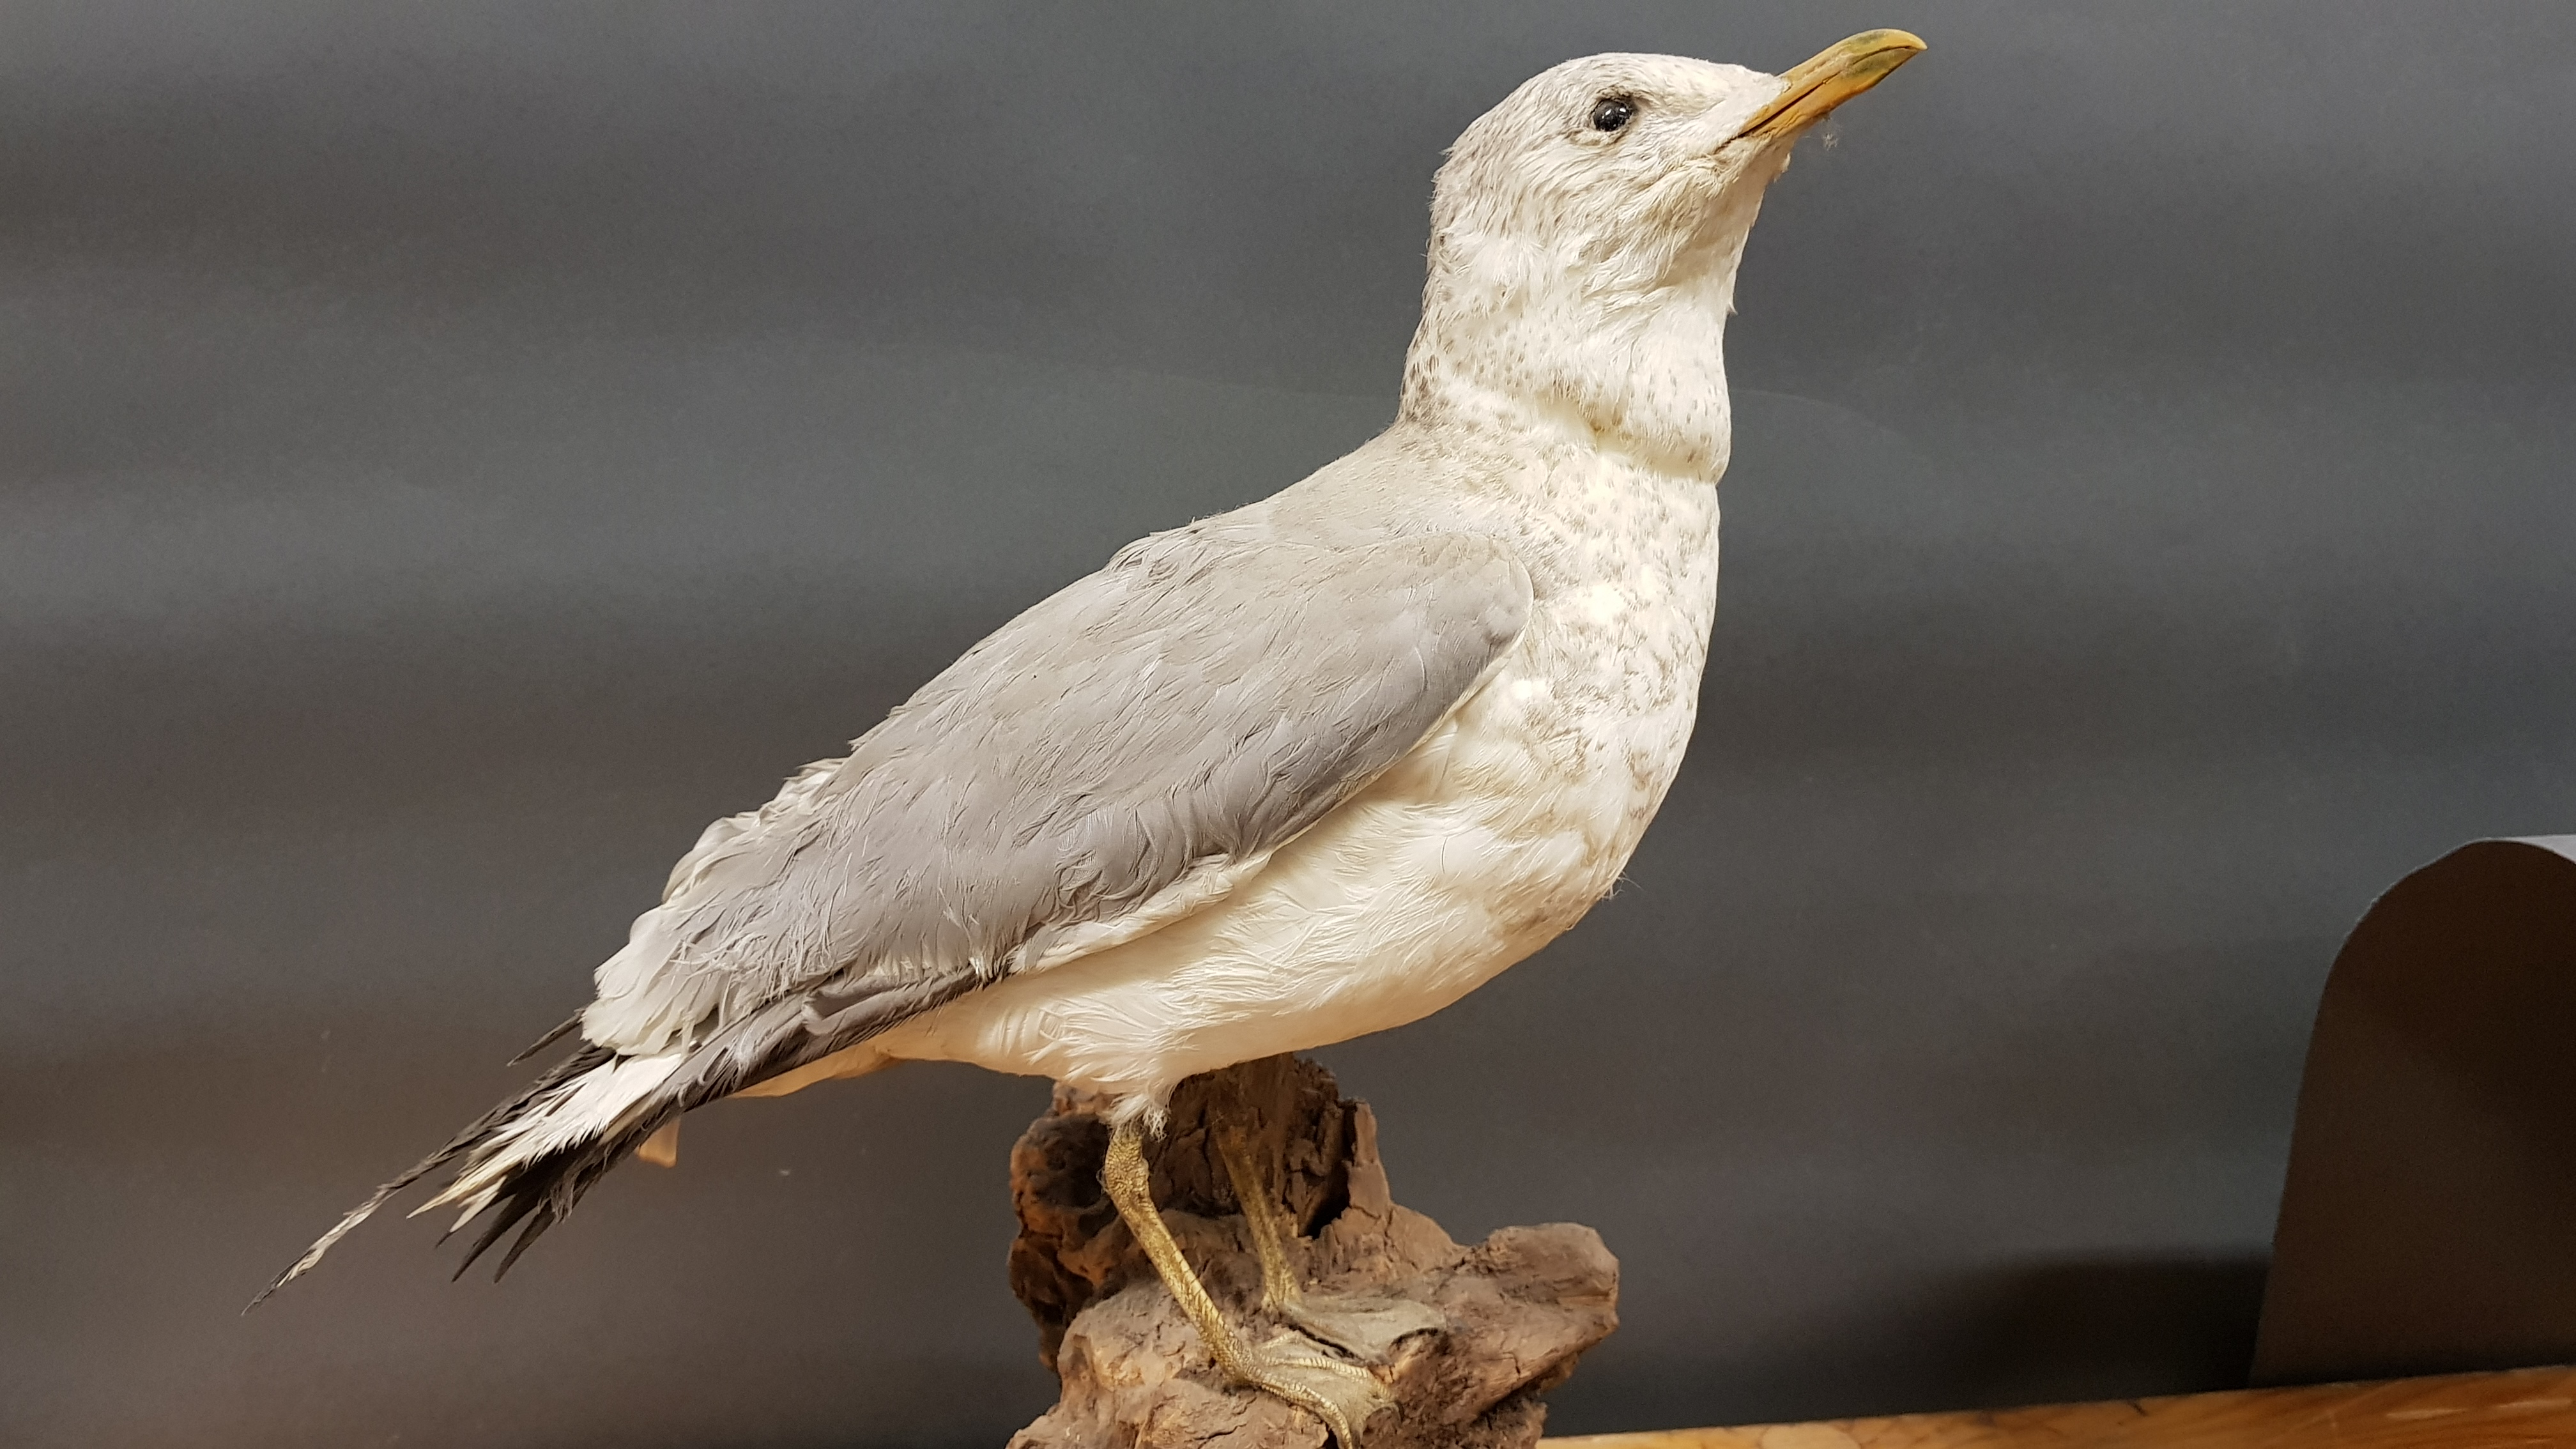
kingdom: Animalia
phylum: Chordata
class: Aves
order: Charadriiformes
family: Laridae
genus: Larus
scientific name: Larus canus
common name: Mew gull
